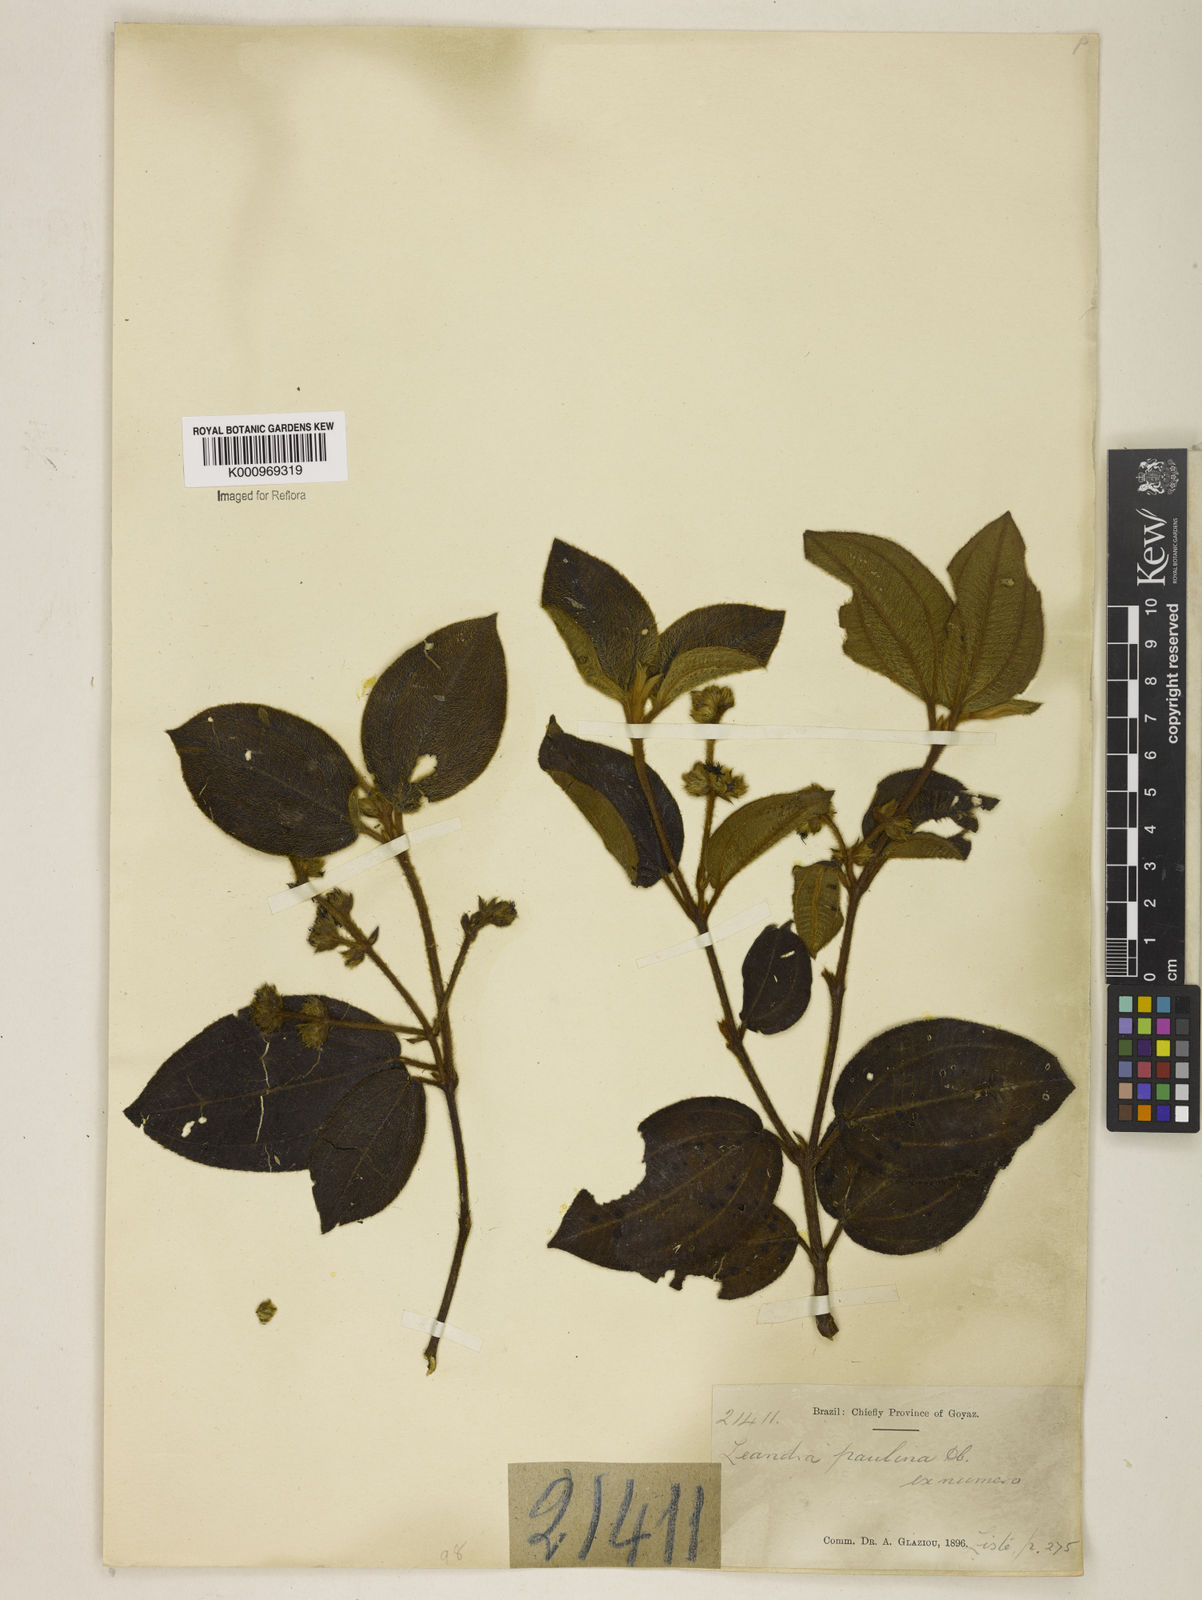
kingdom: Plantae
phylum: Tracheophyta
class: Magnoliopsida
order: Myrtales
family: Melastomataceae
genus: Miconia
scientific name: Miconia paulina
